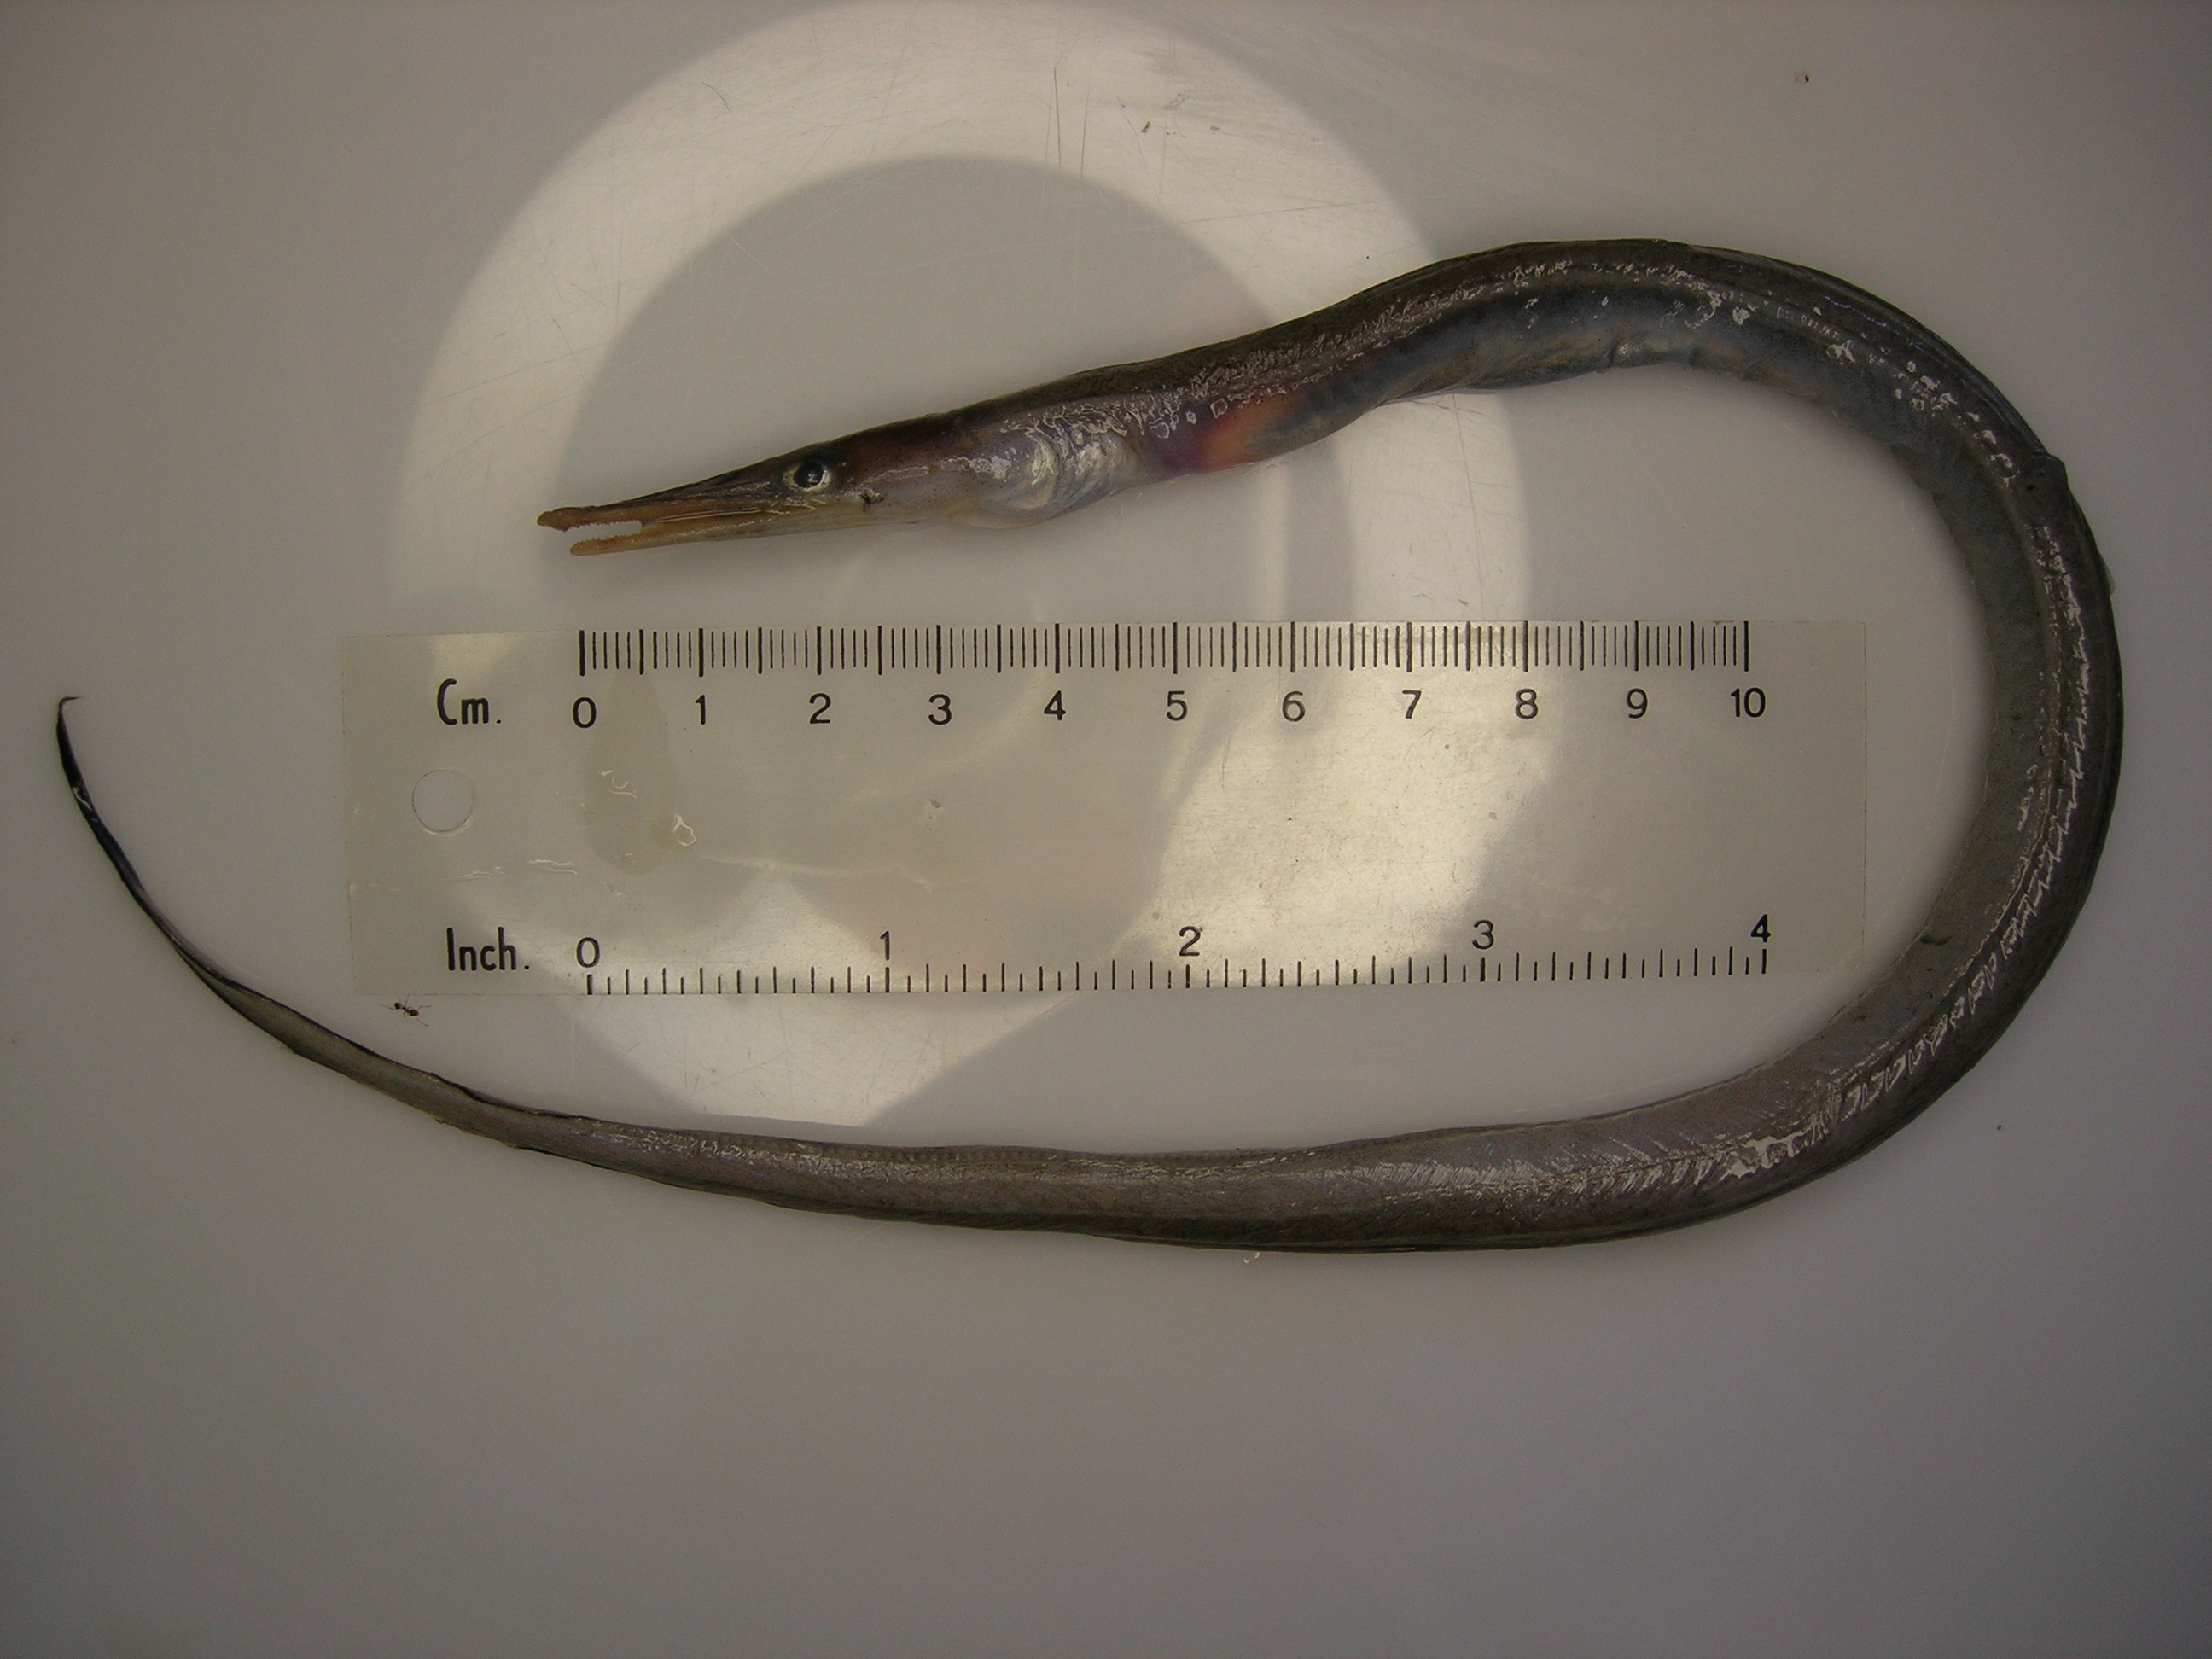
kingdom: Animalia
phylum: Chordata
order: Anguilliformes
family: Nettastomatidae
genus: Nettastoma
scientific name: Nettastoma parviceps
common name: Duck-billed eel
